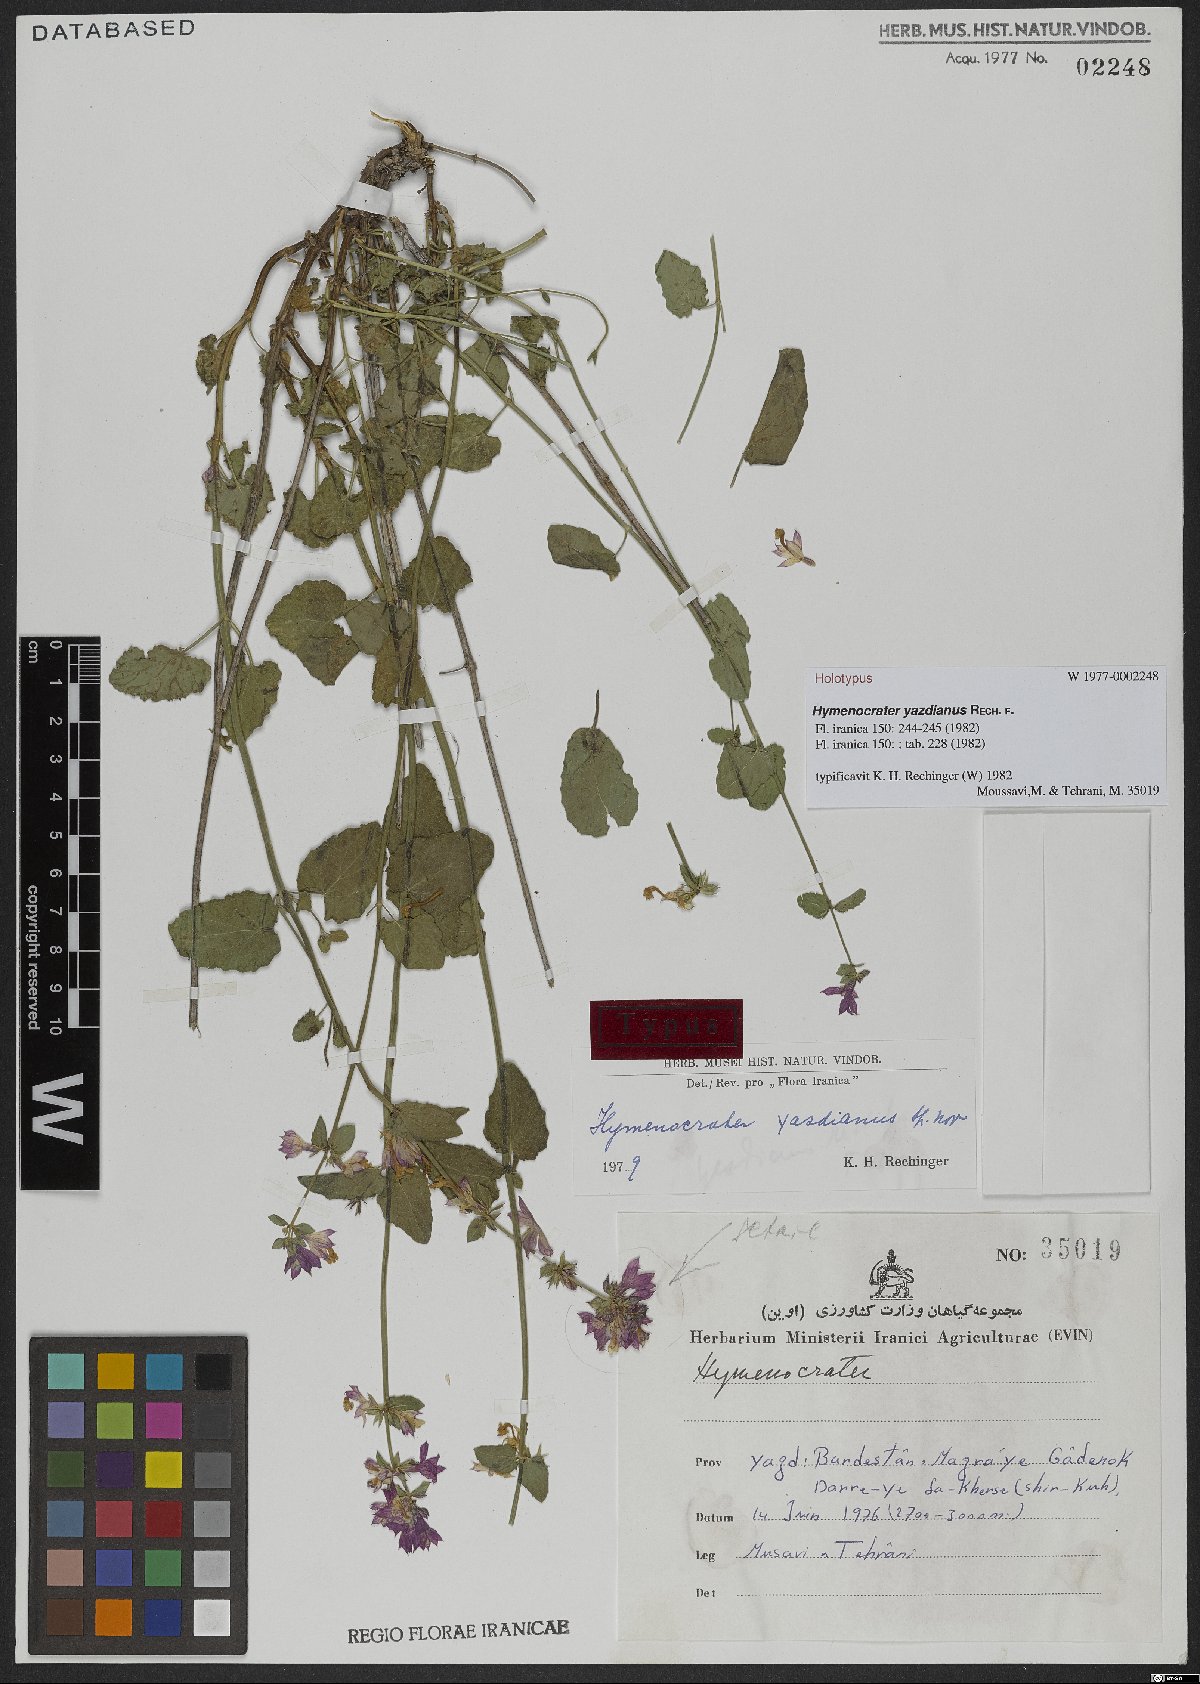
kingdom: Plantae
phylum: Tracheophyta
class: Magnoliopsida
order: Lamiales
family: Lamiaceae
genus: Nepeta
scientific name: Nepeta yazdiana
